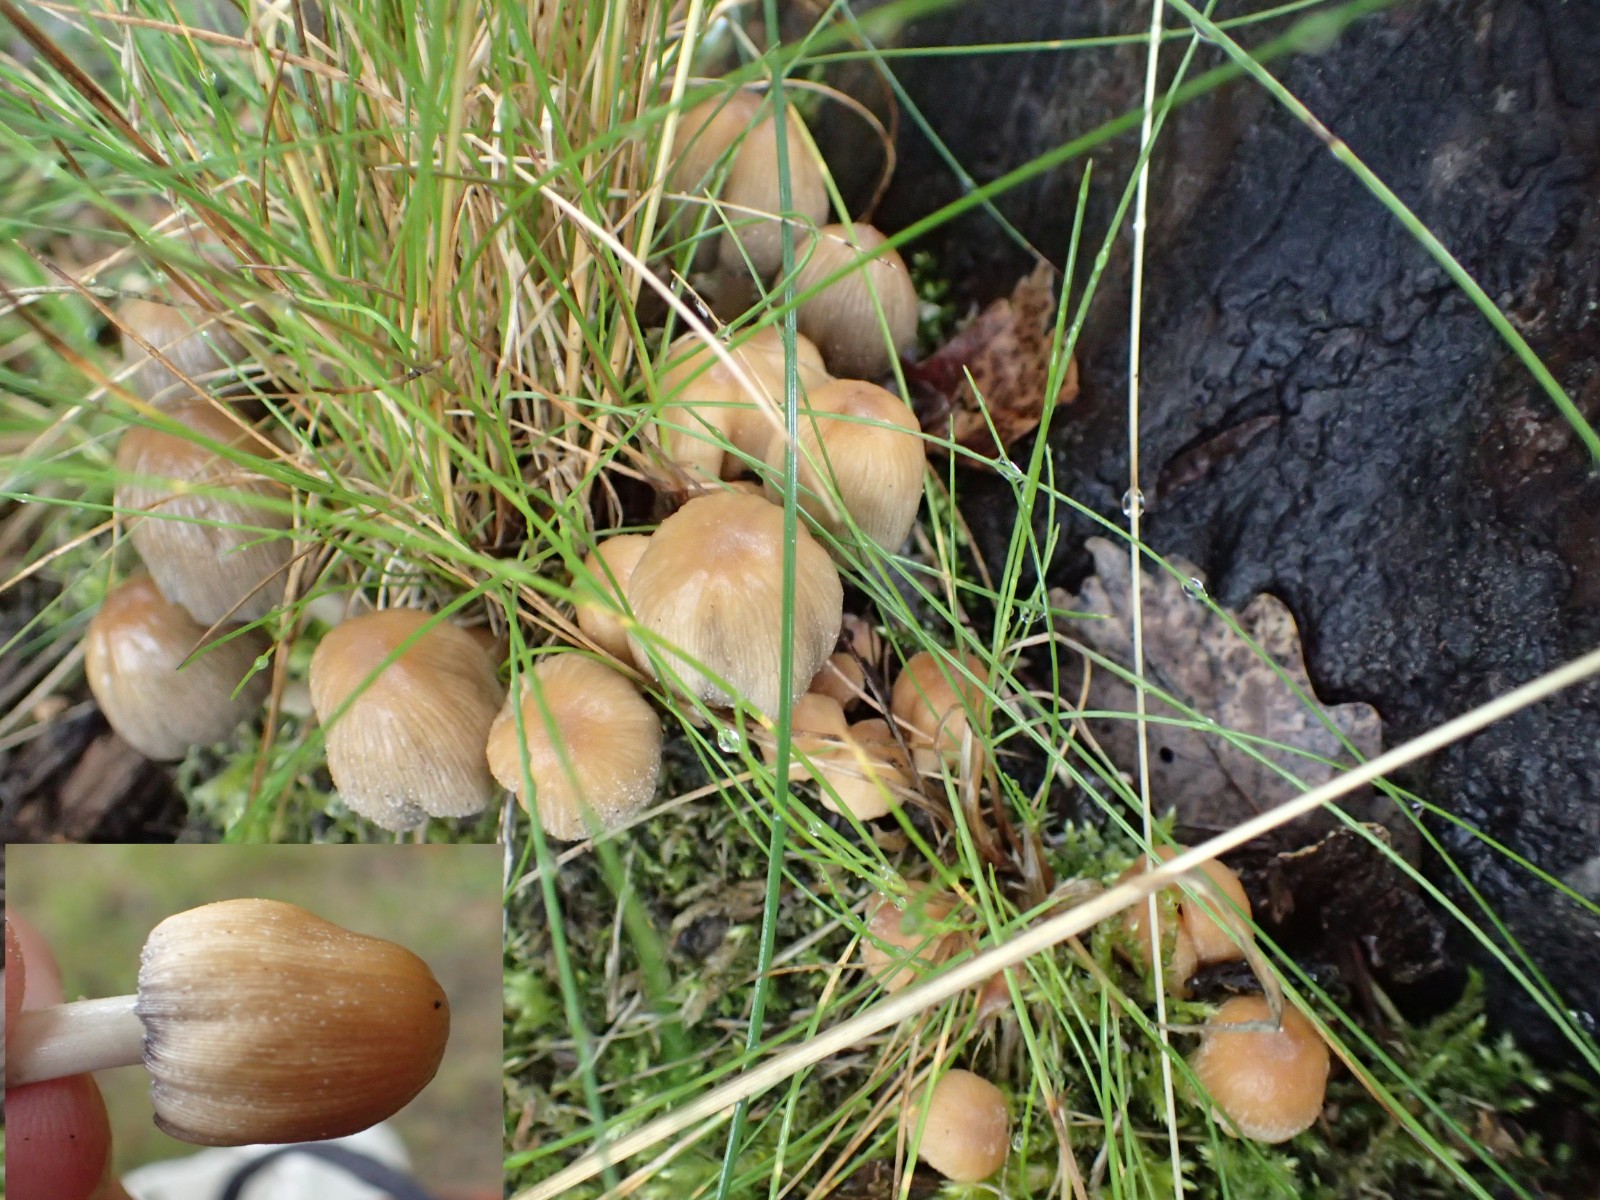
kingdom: Fungi
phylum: Basidiomycota
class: Agaricomycetes
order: Agaricales
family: Psathyrellaceae
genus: Coprinellus
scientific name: Coprinellus micaceus
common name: glimmer-blækhat
